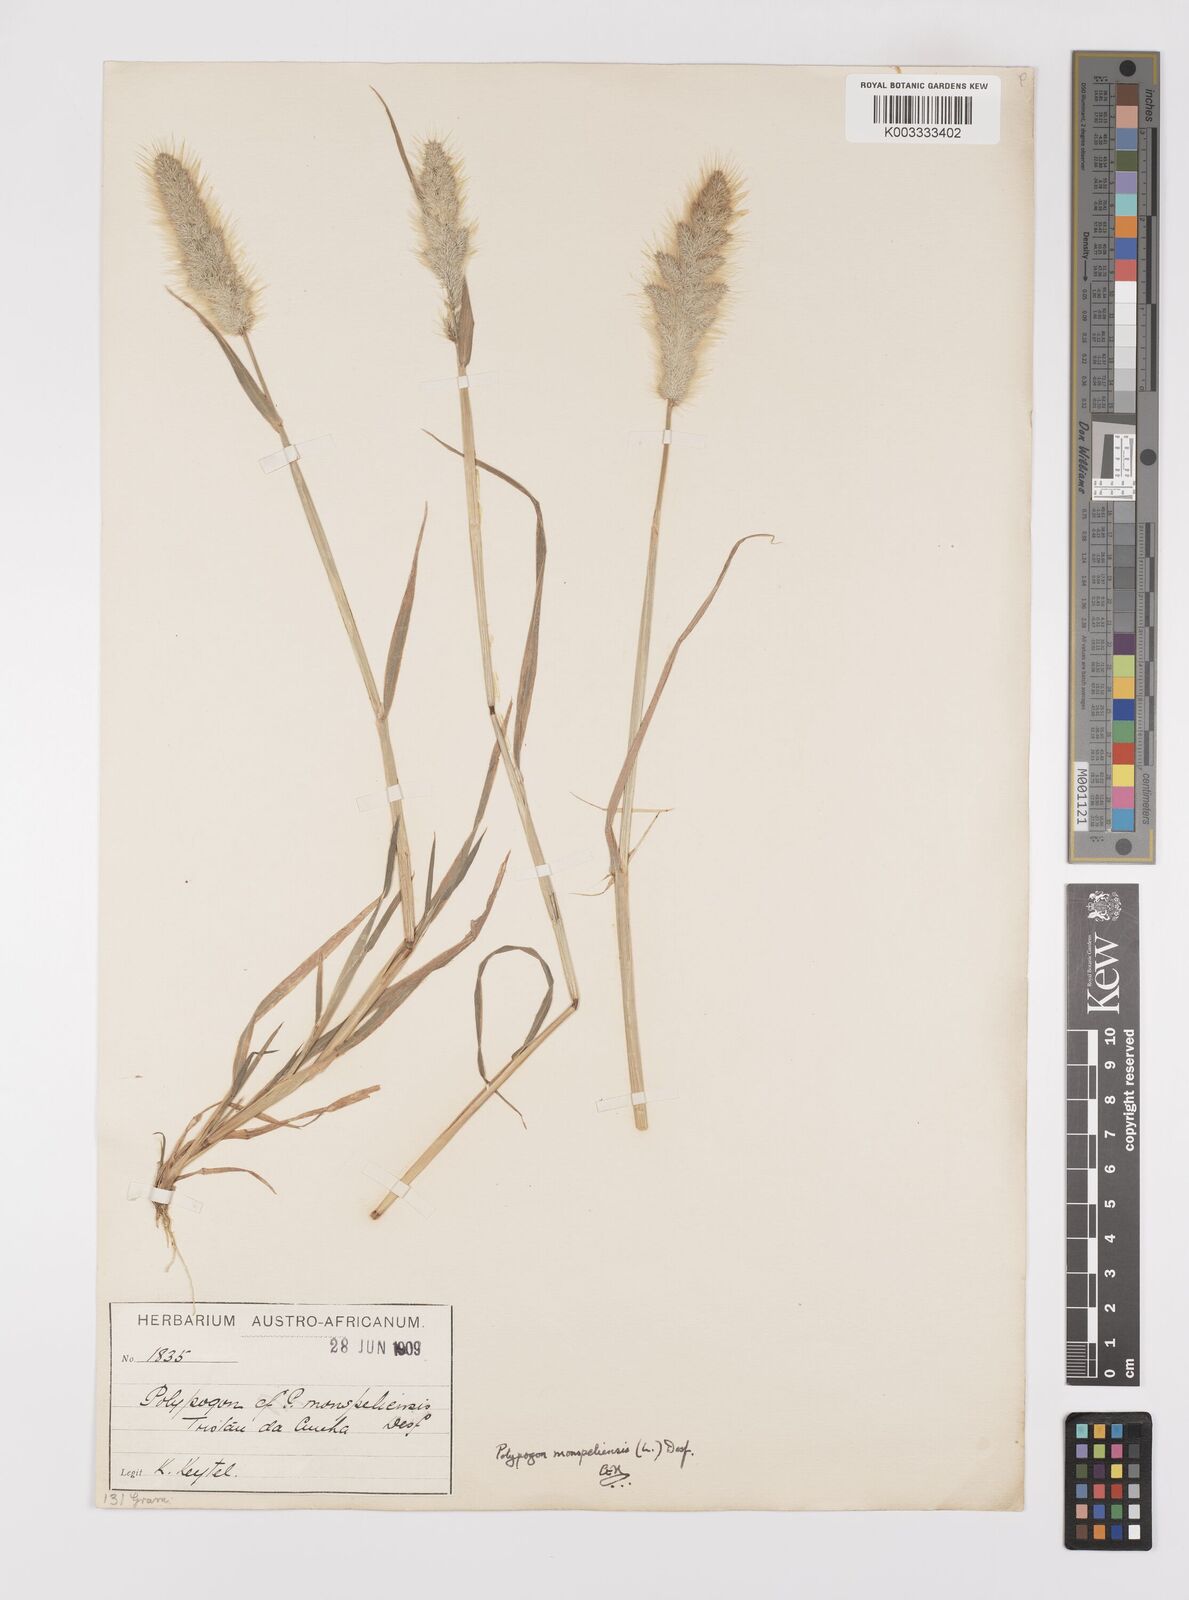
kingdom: Plantae
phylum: Tracheophyta
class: Liliopsida
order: Poales
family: Poaceae
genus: Polypogon
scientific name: Polypogon monspeliensis
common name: Annual rabbitsfoot grass
